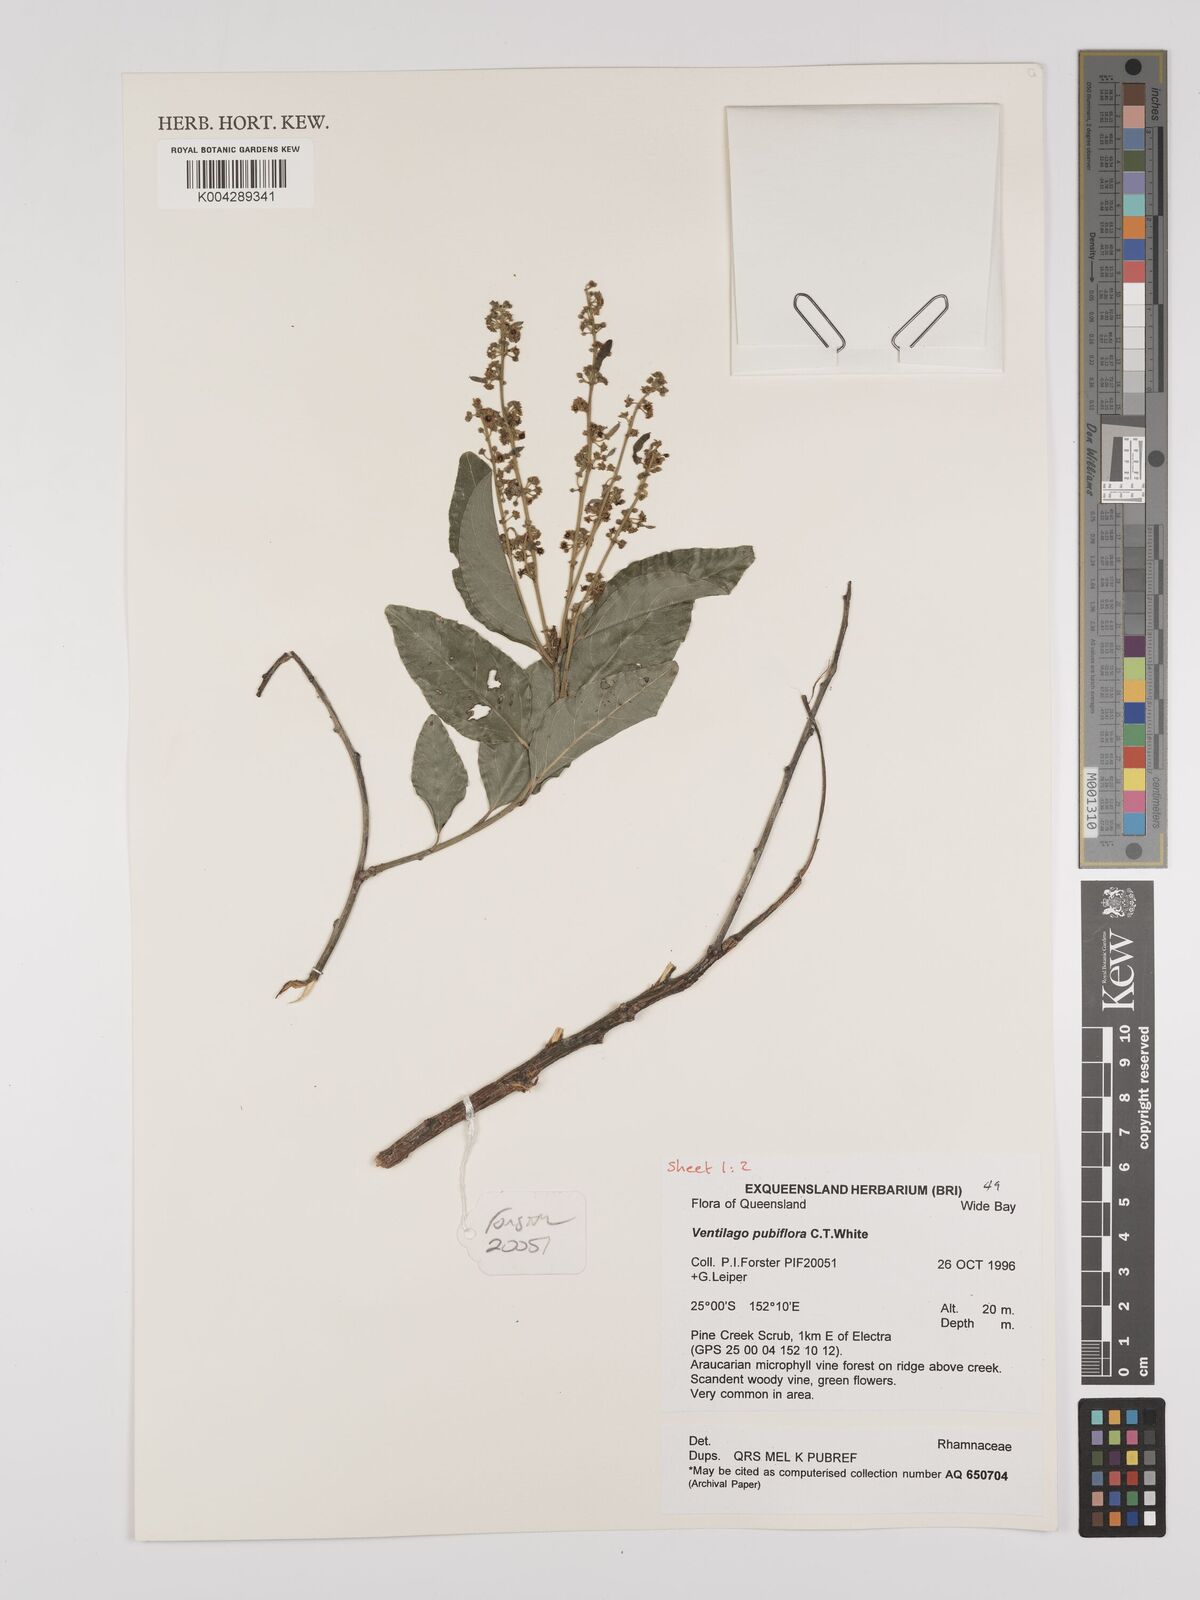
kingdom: Plantae
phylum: Tracheophyta
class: Magnoliopsida
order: Rosales
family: Rhamnaceae
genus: Ventilago
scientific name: Ventilago pubiflora
